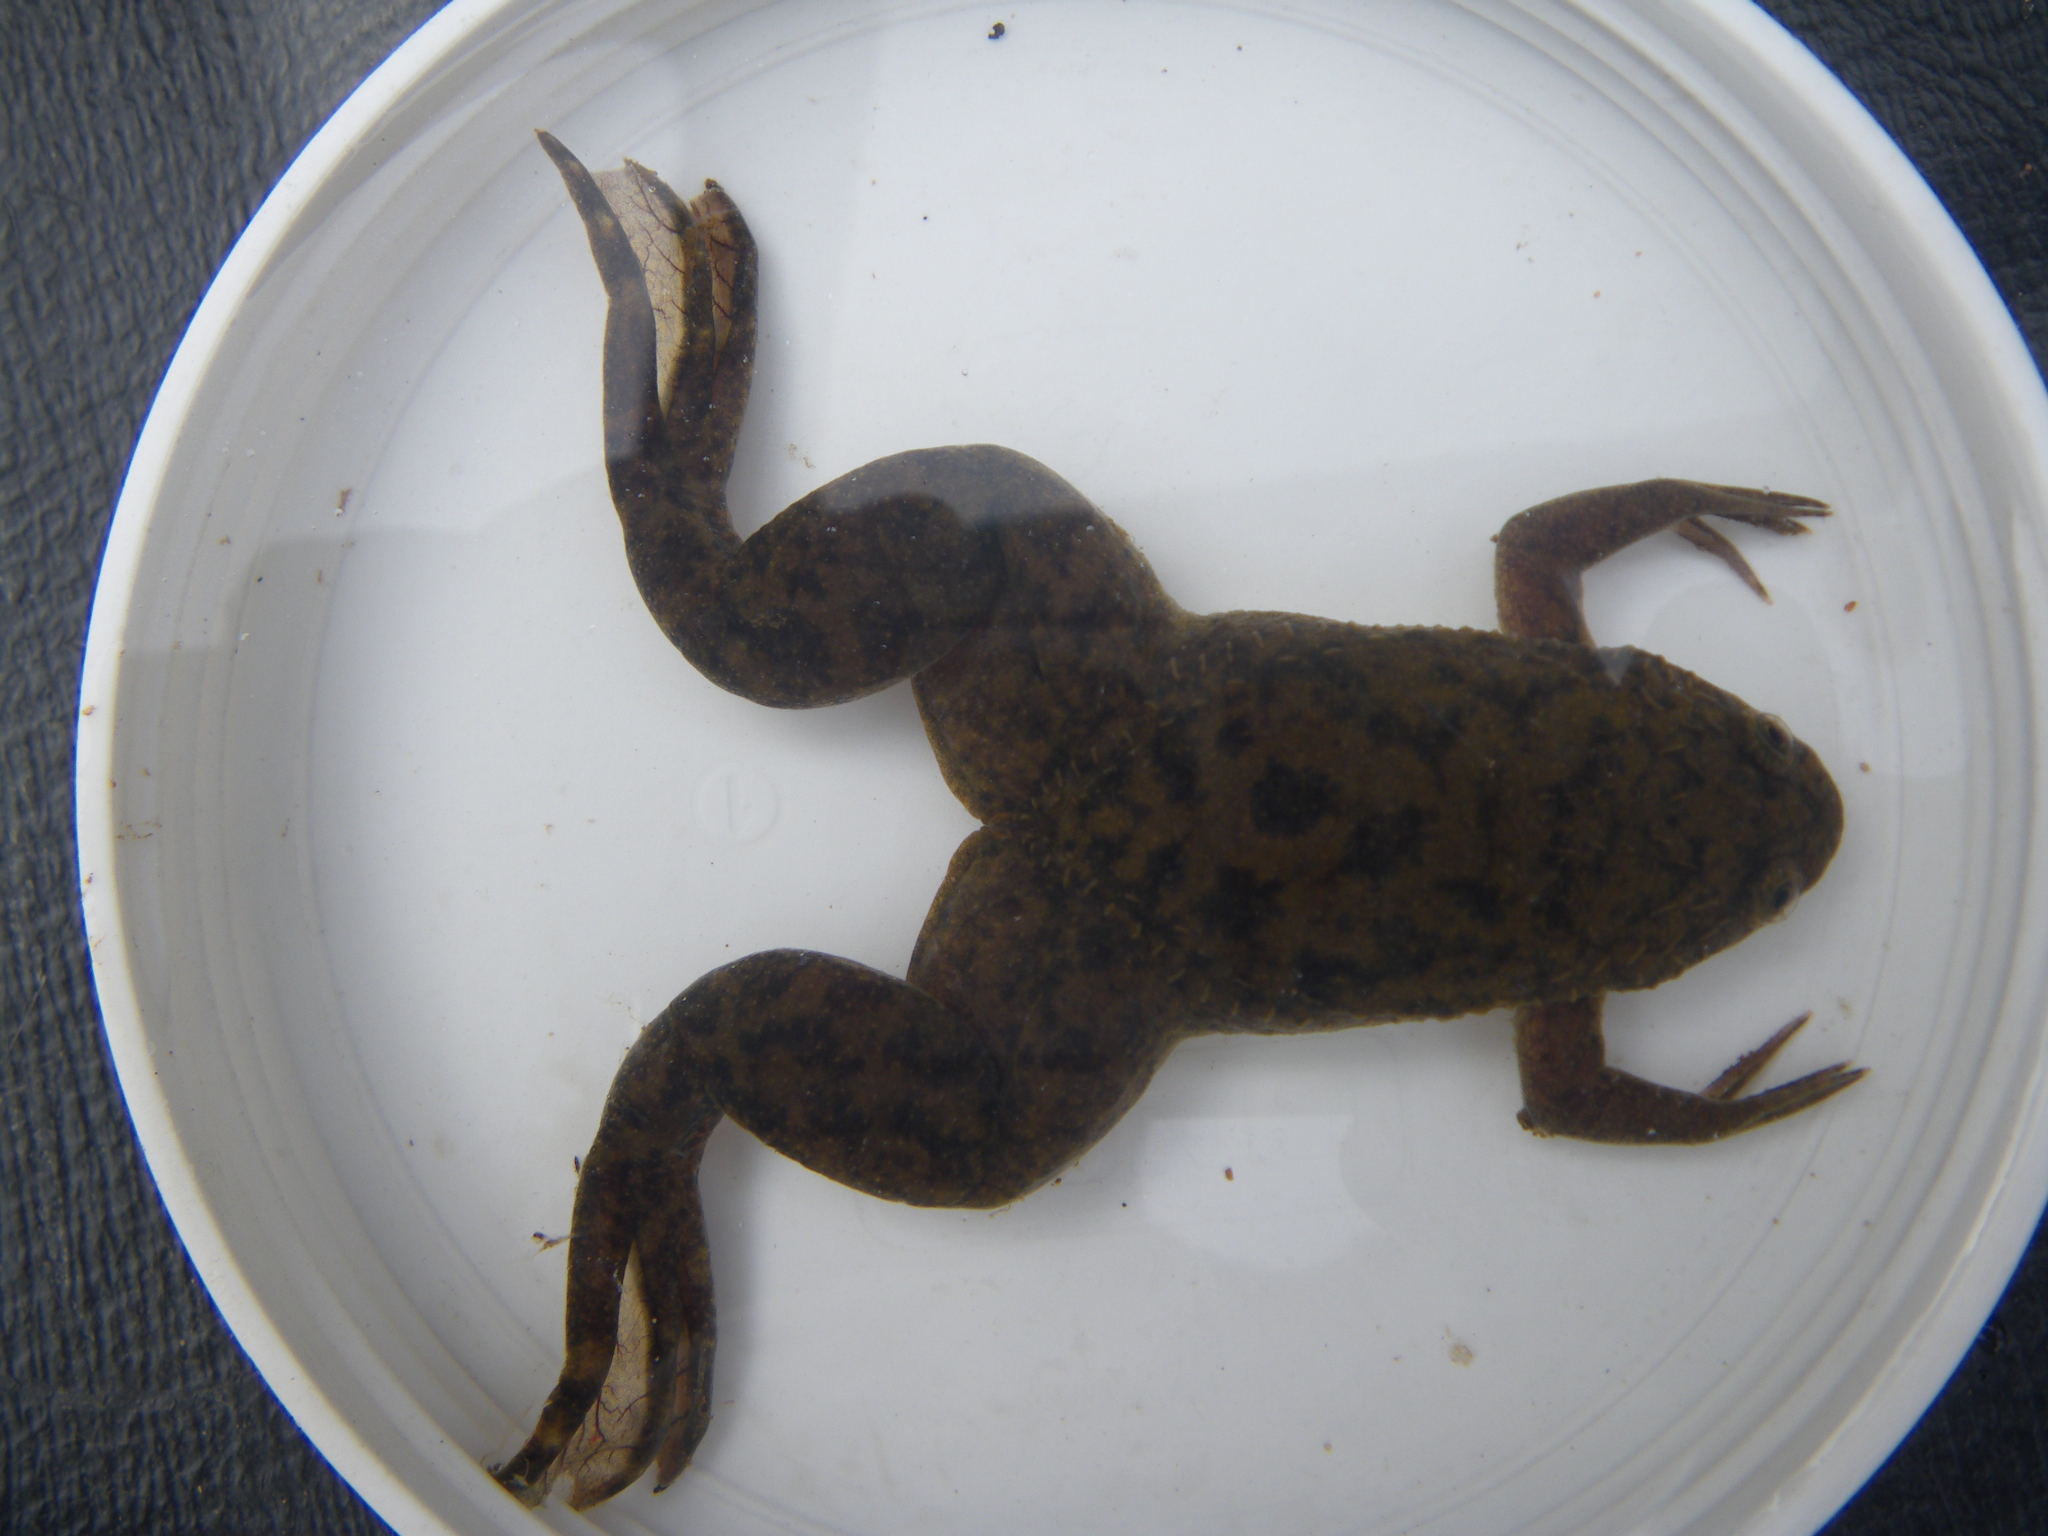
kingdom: Animalia
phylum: Chordata
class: Amphibia
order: Anura
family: Pipidae
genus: Xenopus
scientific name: Xenopus
